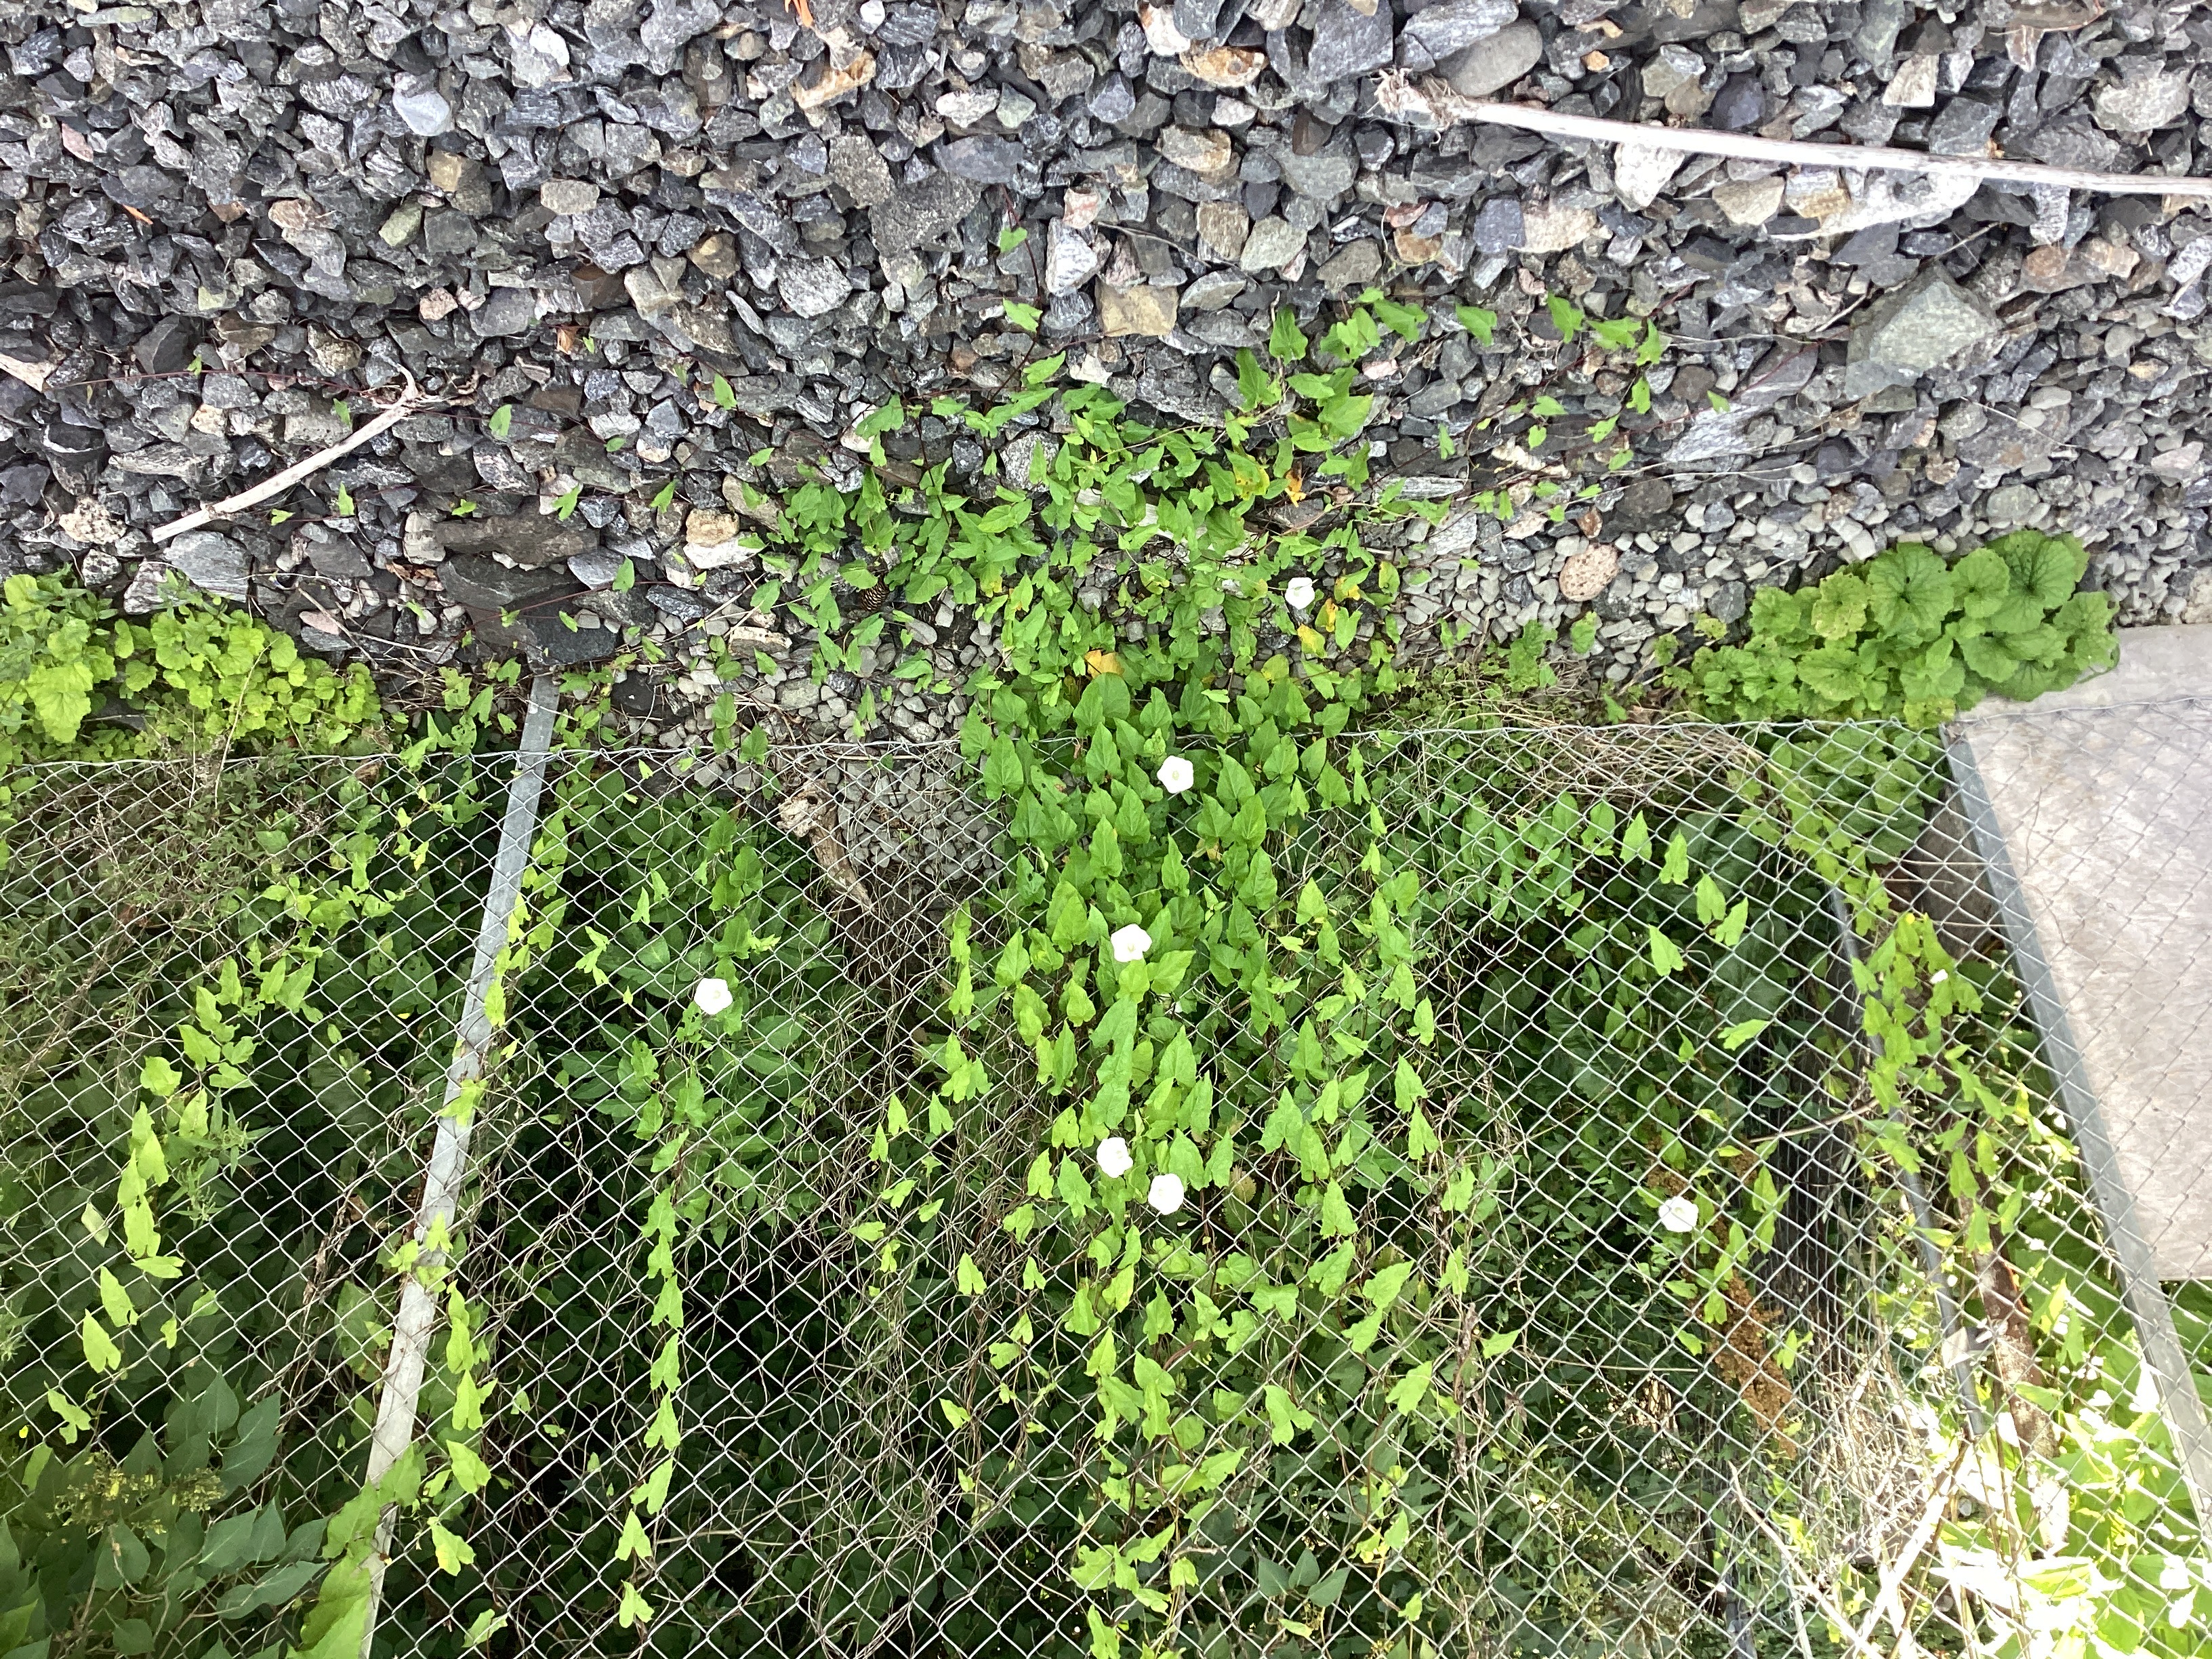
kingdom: Plantae
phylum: Tracheophyta
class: Magnoliopsida
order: Solanales
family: Convolvulaceae
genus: Calystegia
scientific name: Calystegia sepium
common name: prydstrandvindel
